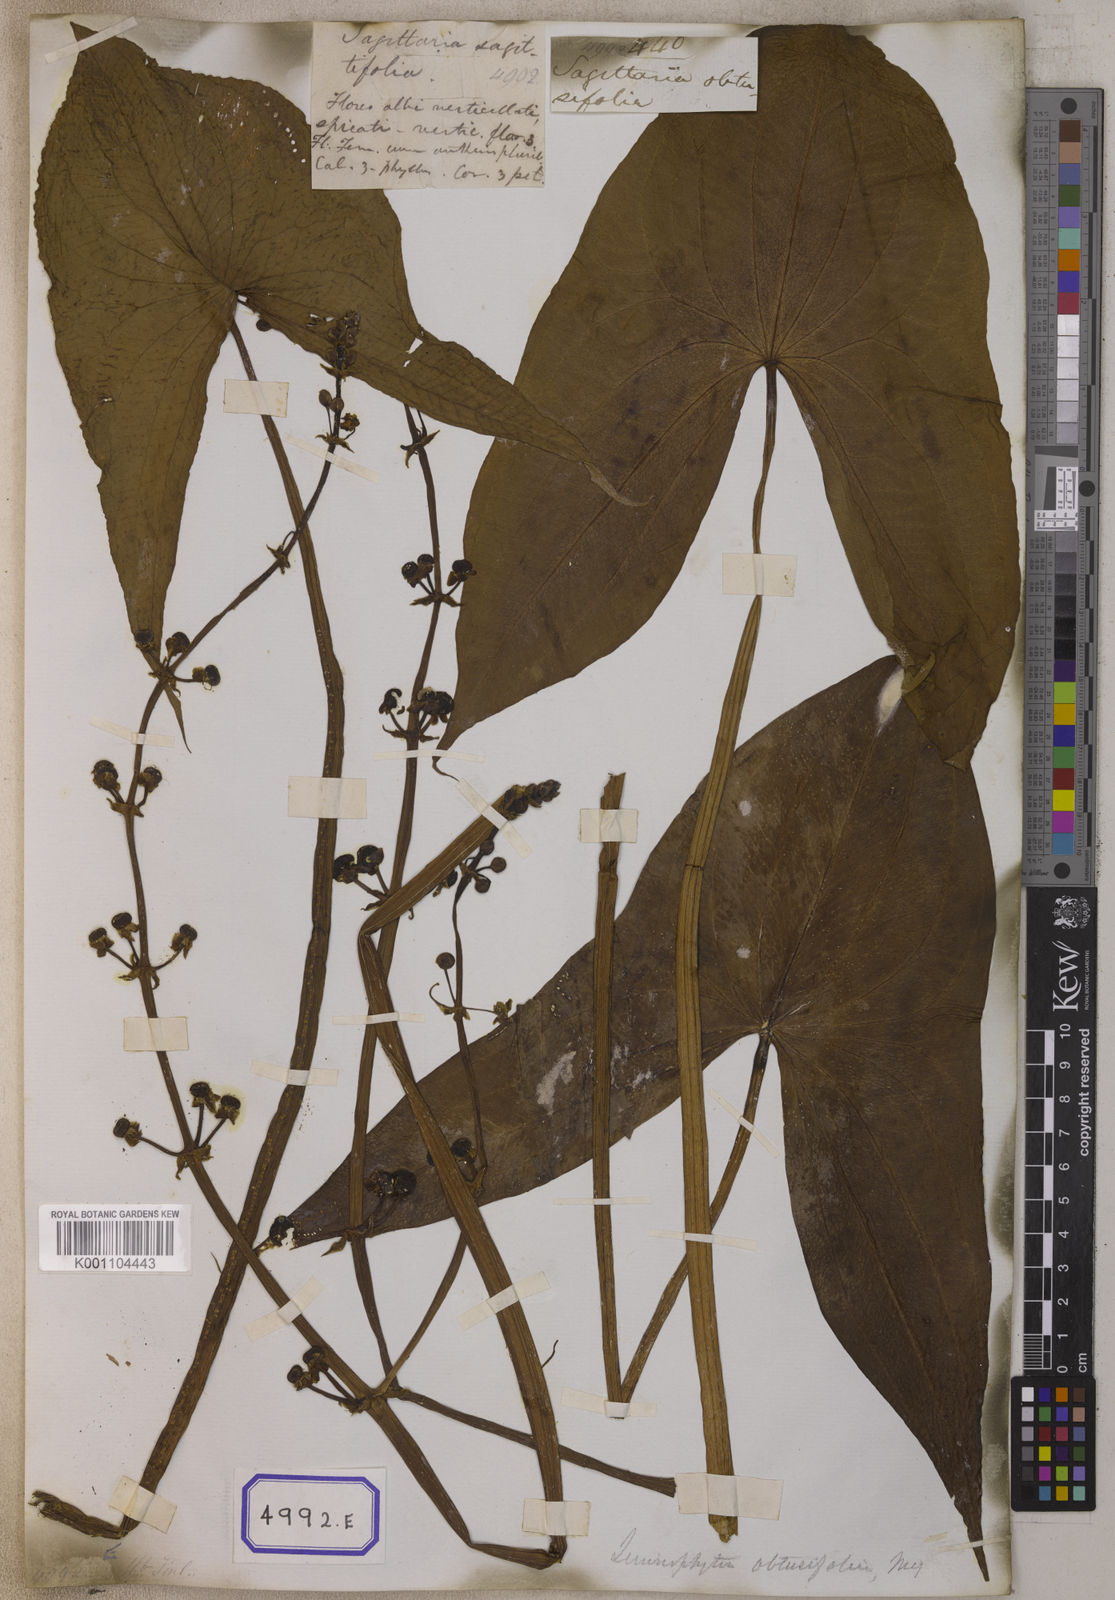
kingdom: Plantae
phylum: Tracheophyta
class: Liliopsida
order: Alismatales
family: Alismataceae
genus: Limnophyton
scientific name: Limnophyton obtusifolium
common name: Arrow head
